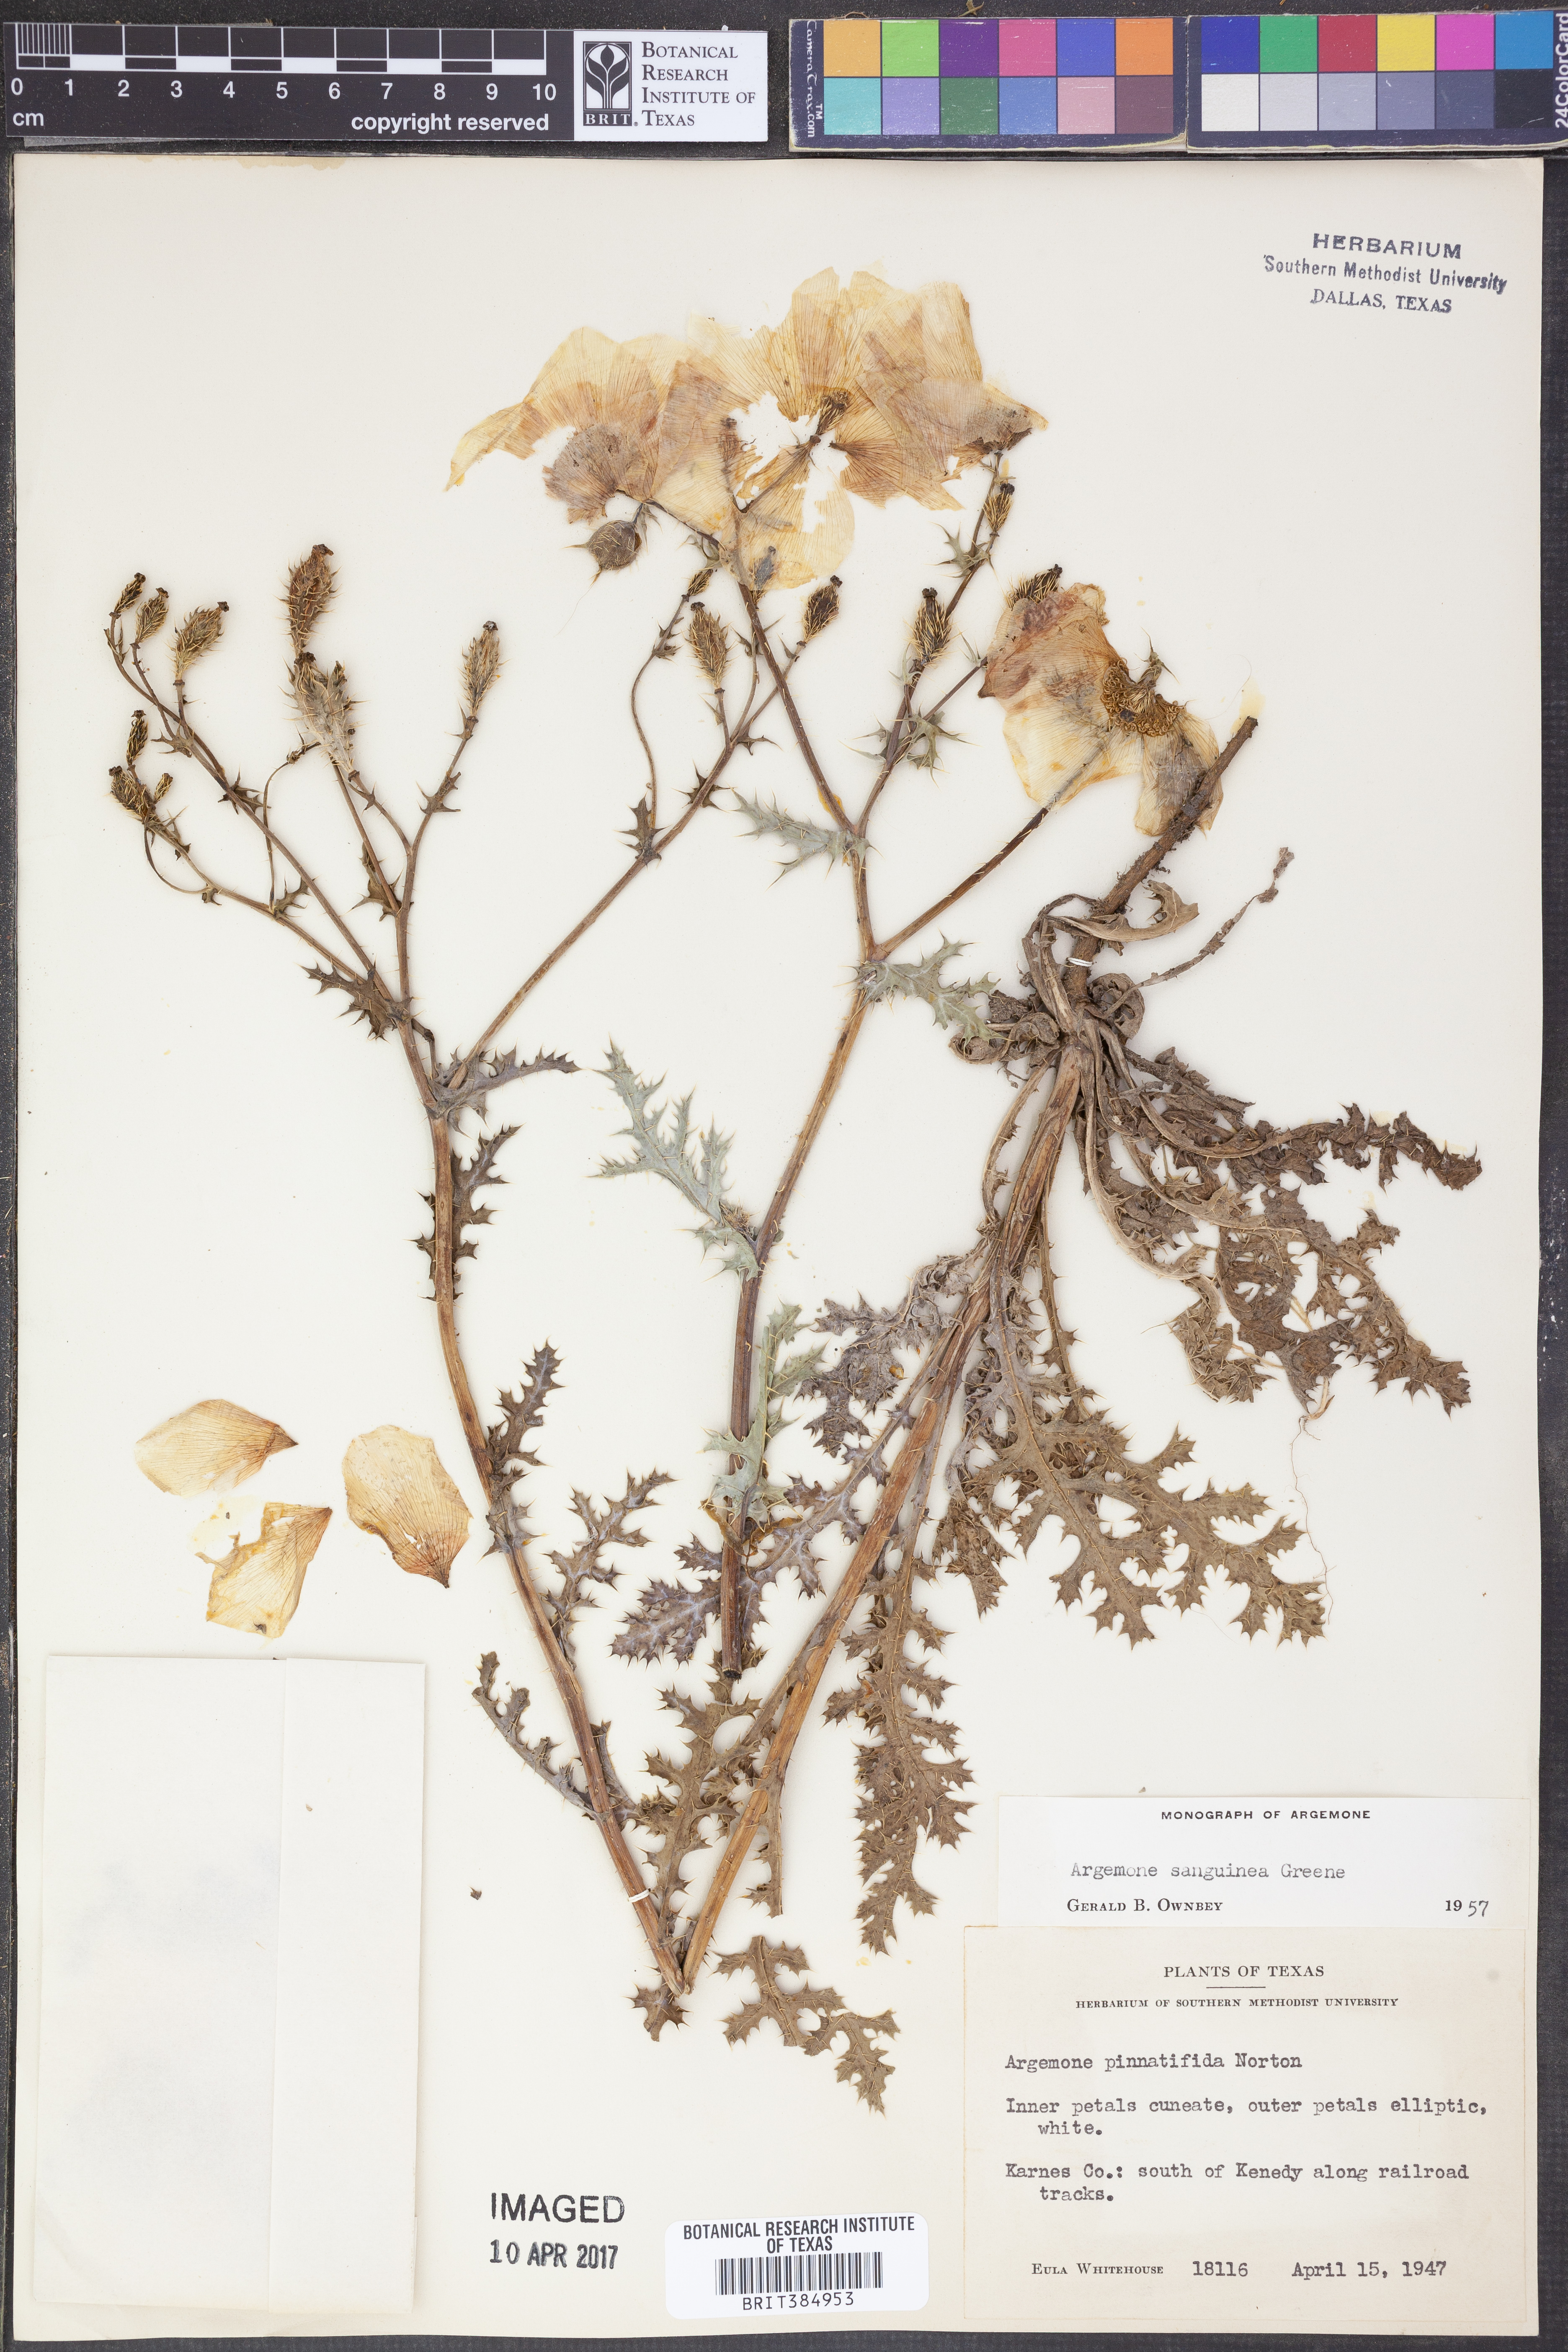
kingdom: Plantae
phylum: Tracheophyta
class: Magnoliopsida
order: Ranunculales
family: Papaveraceae
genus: Argemone
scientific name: Argemone sanguinea
